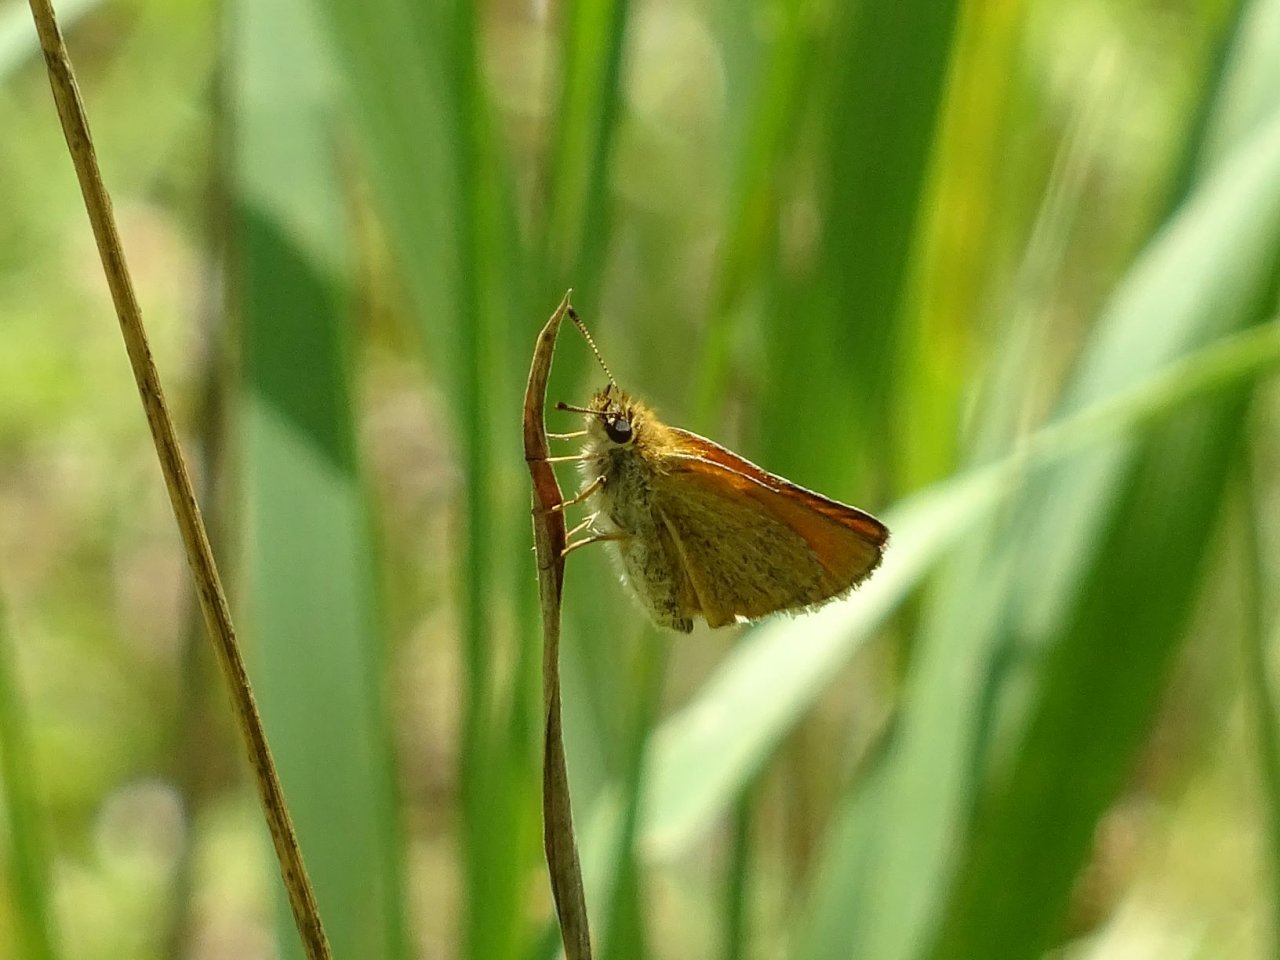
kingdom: Animalia
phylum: Arthropoda
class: Insecta
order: Lepidoptera
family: Hesperiidae
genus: Thymelicus
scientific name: Thymelicus lineola
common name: European Skipper
